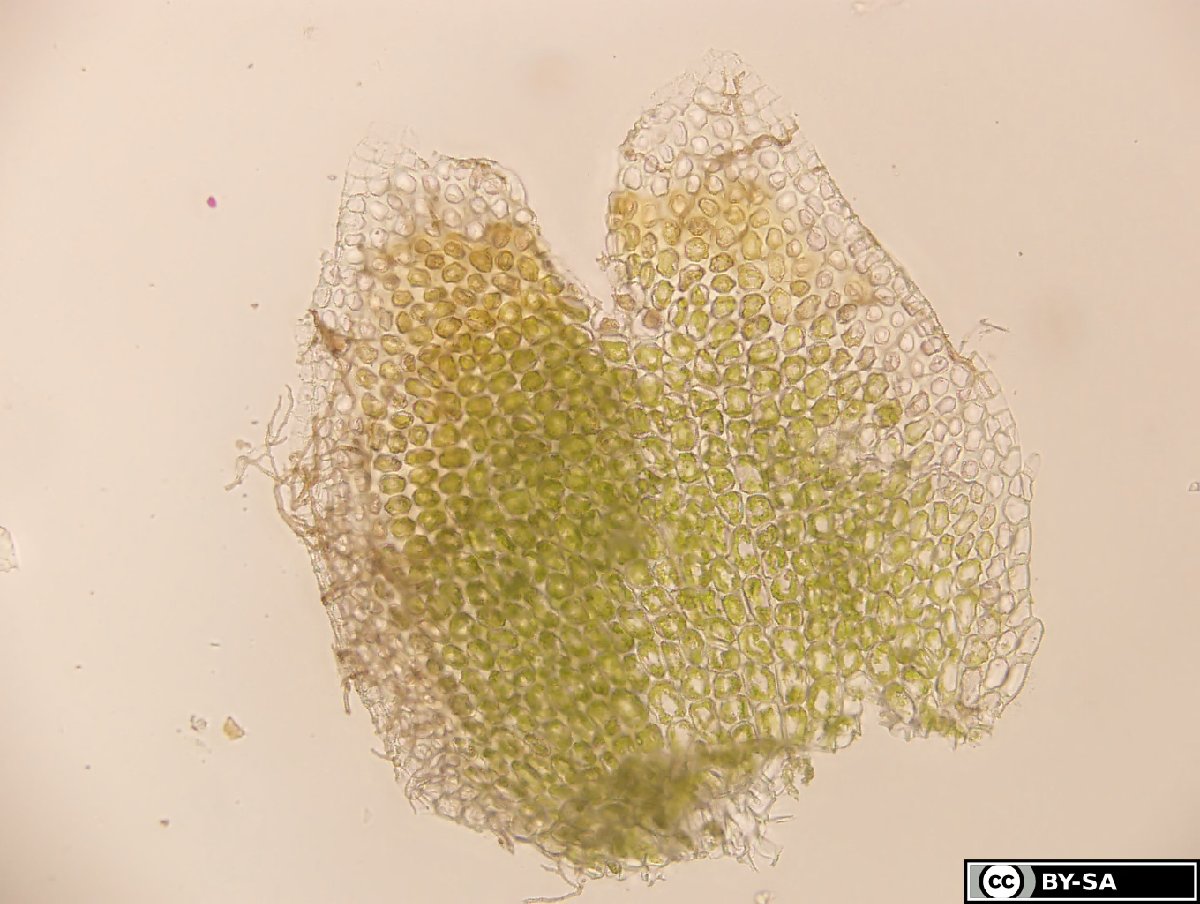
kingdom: Plantae
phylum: Marchantiophyta
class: Jungermanniopsida
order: Jungermanniales
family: Gymnomitriaceae
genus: Gymnomitrion
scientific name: Gymnomitrion concinnatum
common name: Braided frostwort
